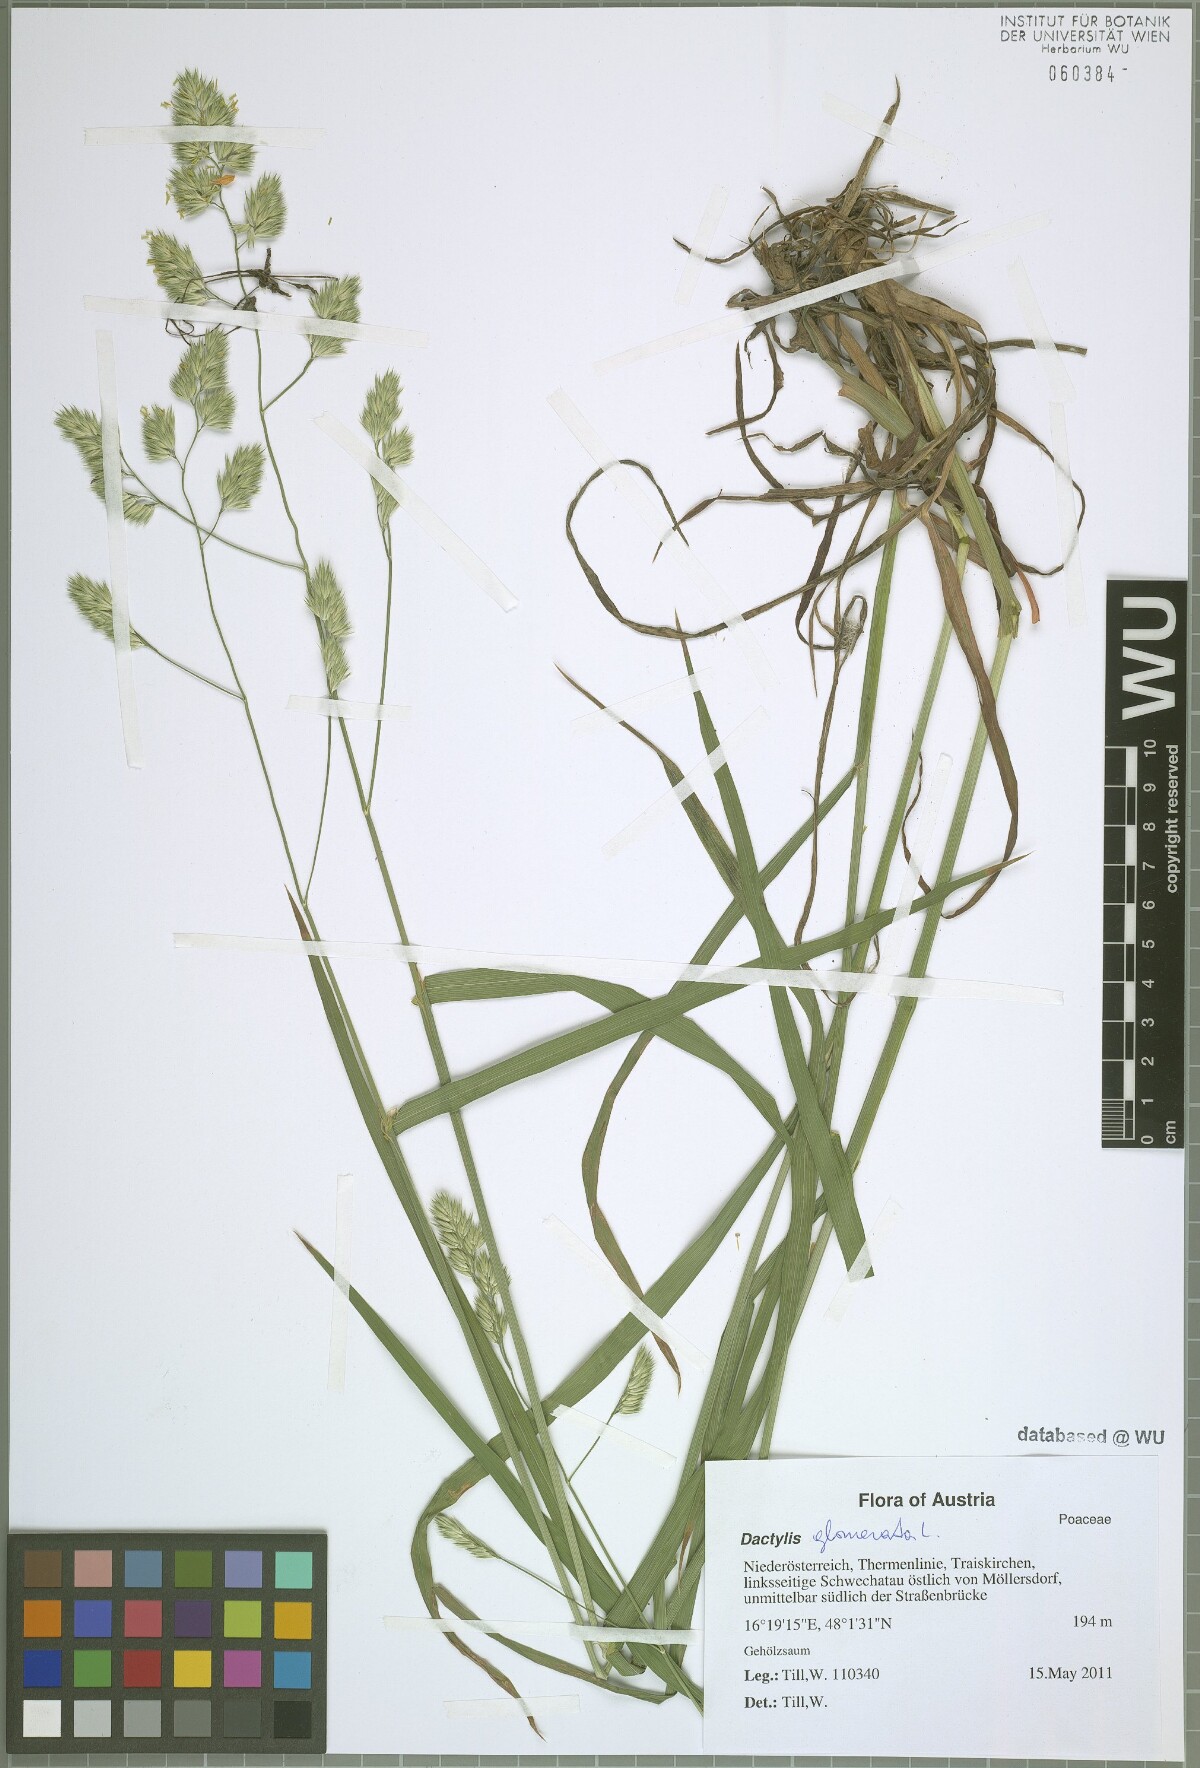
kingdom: Plantae
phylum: Tracheophyta
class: Liliopsida
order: Poales
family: Poaceae
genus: Dactylis
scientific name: Dactylis glomerata
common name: Orchardgrass
